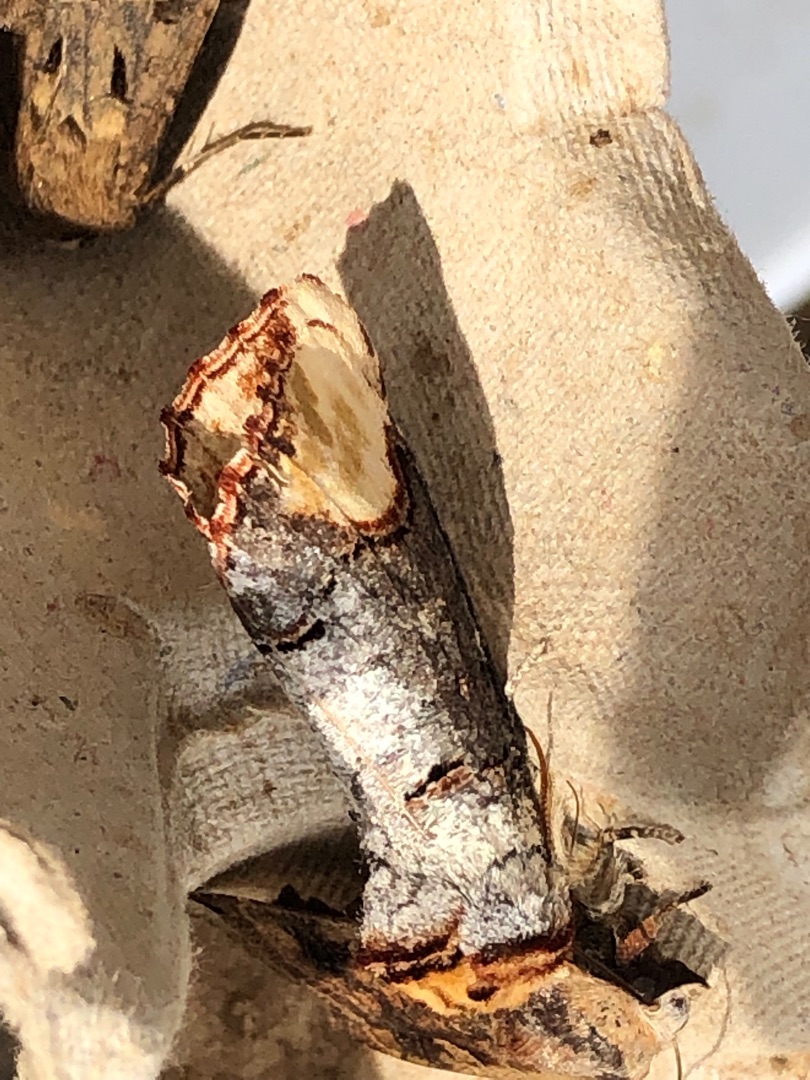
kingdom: Animalia
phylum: Arthropoda
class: Insecta
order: Lepidoptera
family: Notodontidae
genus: Phalera
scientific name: Phalera bucephala
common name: Måneplet
